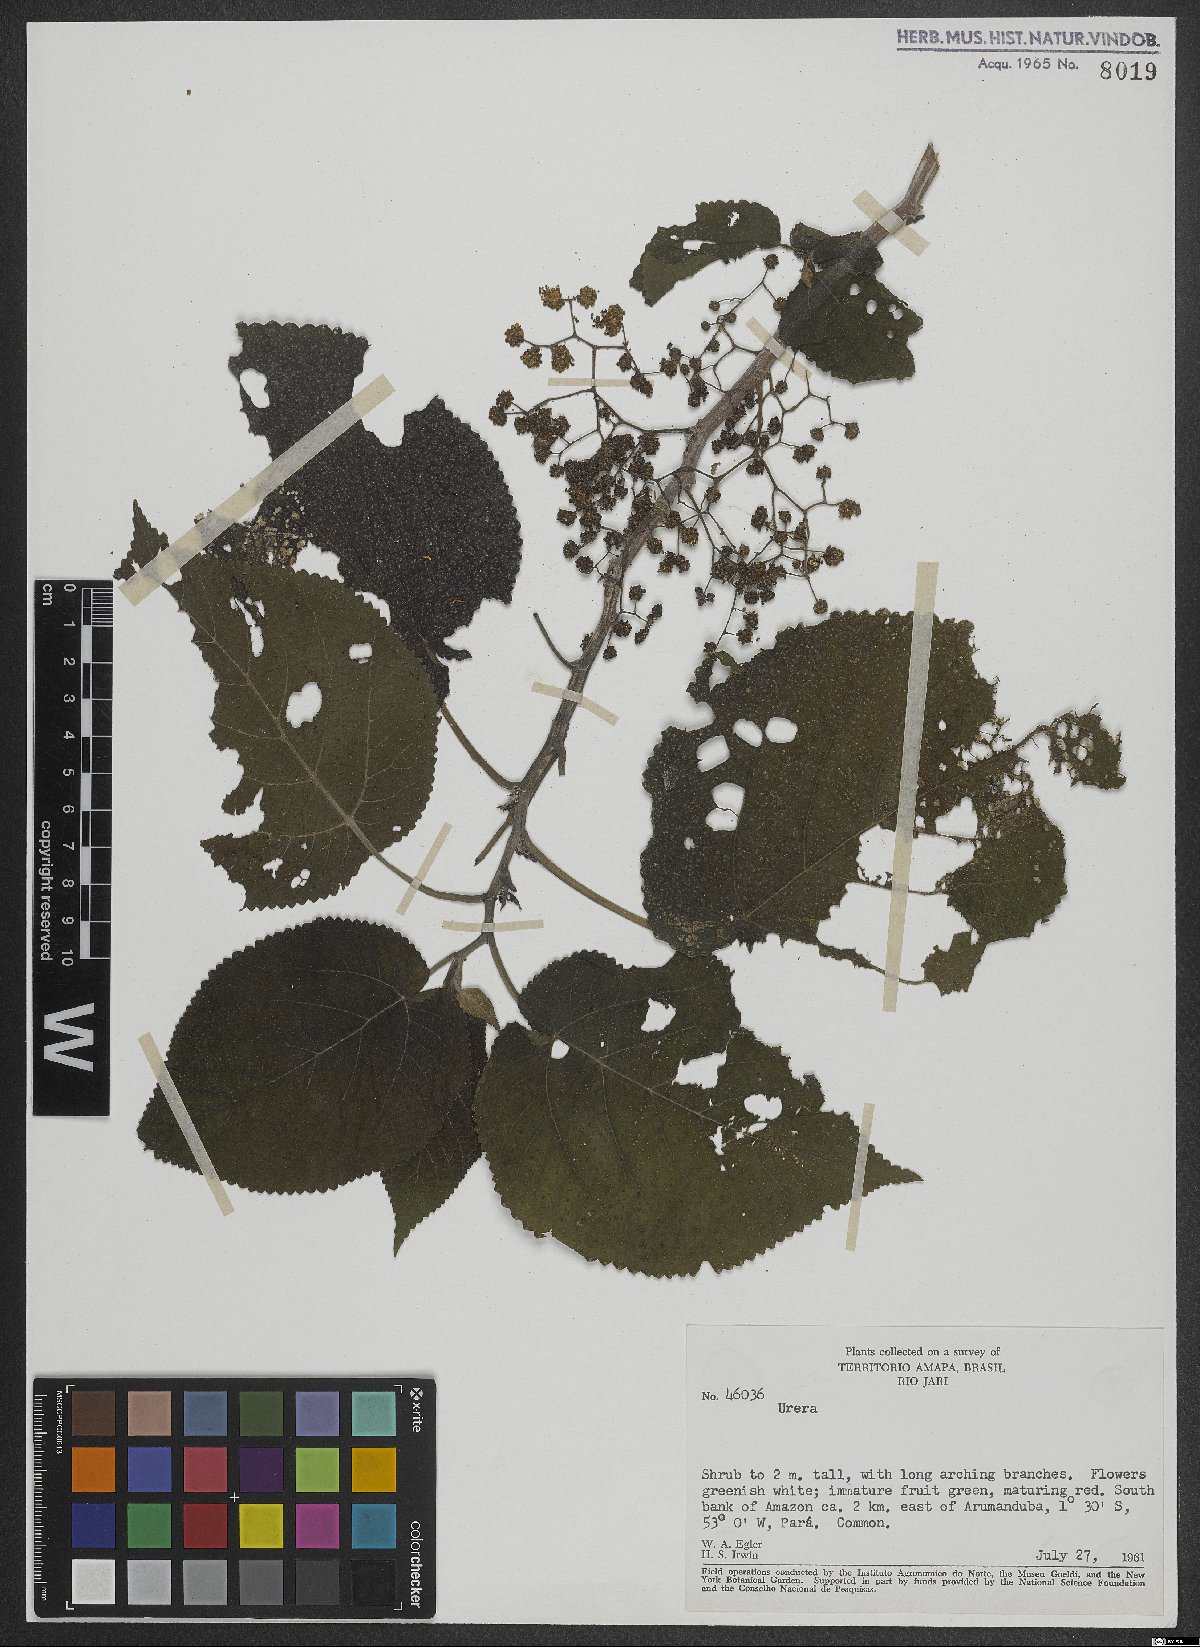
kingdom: Plantae
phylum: Tracheophyta
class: Magnoliopsida
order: Rosales
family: Urticaceae
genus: Urera
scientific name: Urera
